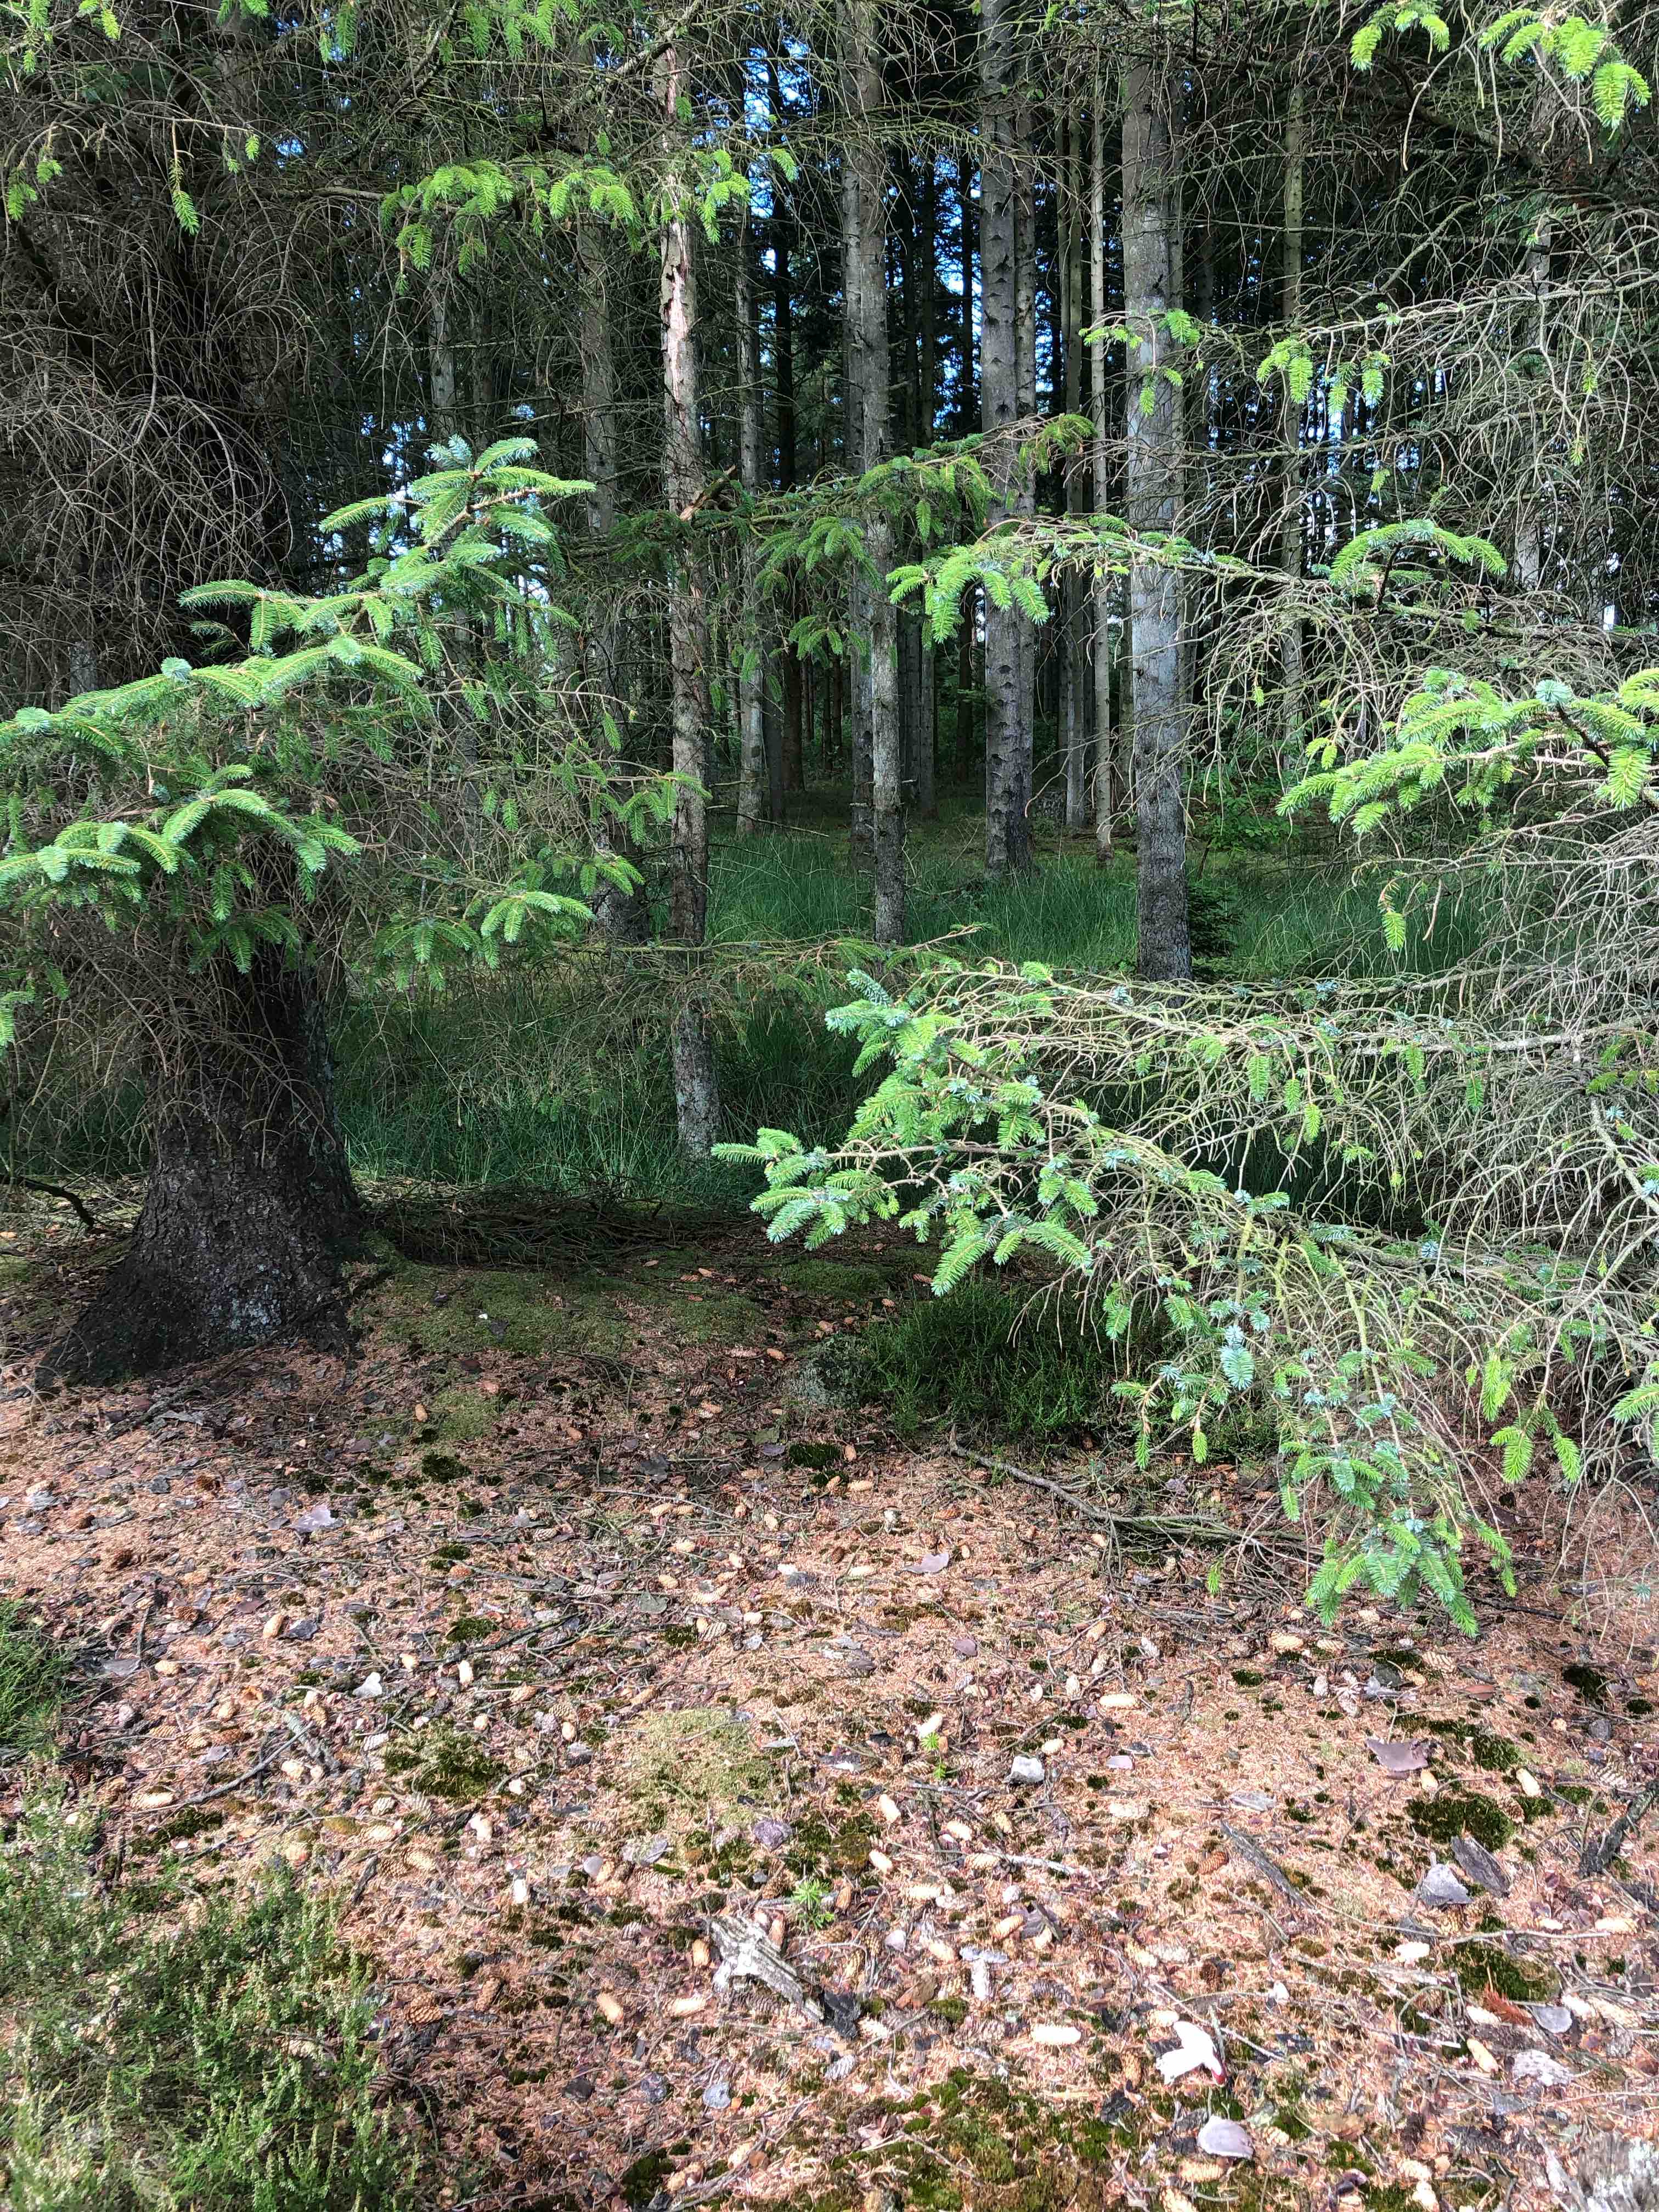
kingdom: Fungi
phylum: Basidiomycota
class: Agaricomycetes
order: Russulales
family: Russulaceae
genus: Russula
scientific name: Russula xerampelina
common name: hummer-skørhat
